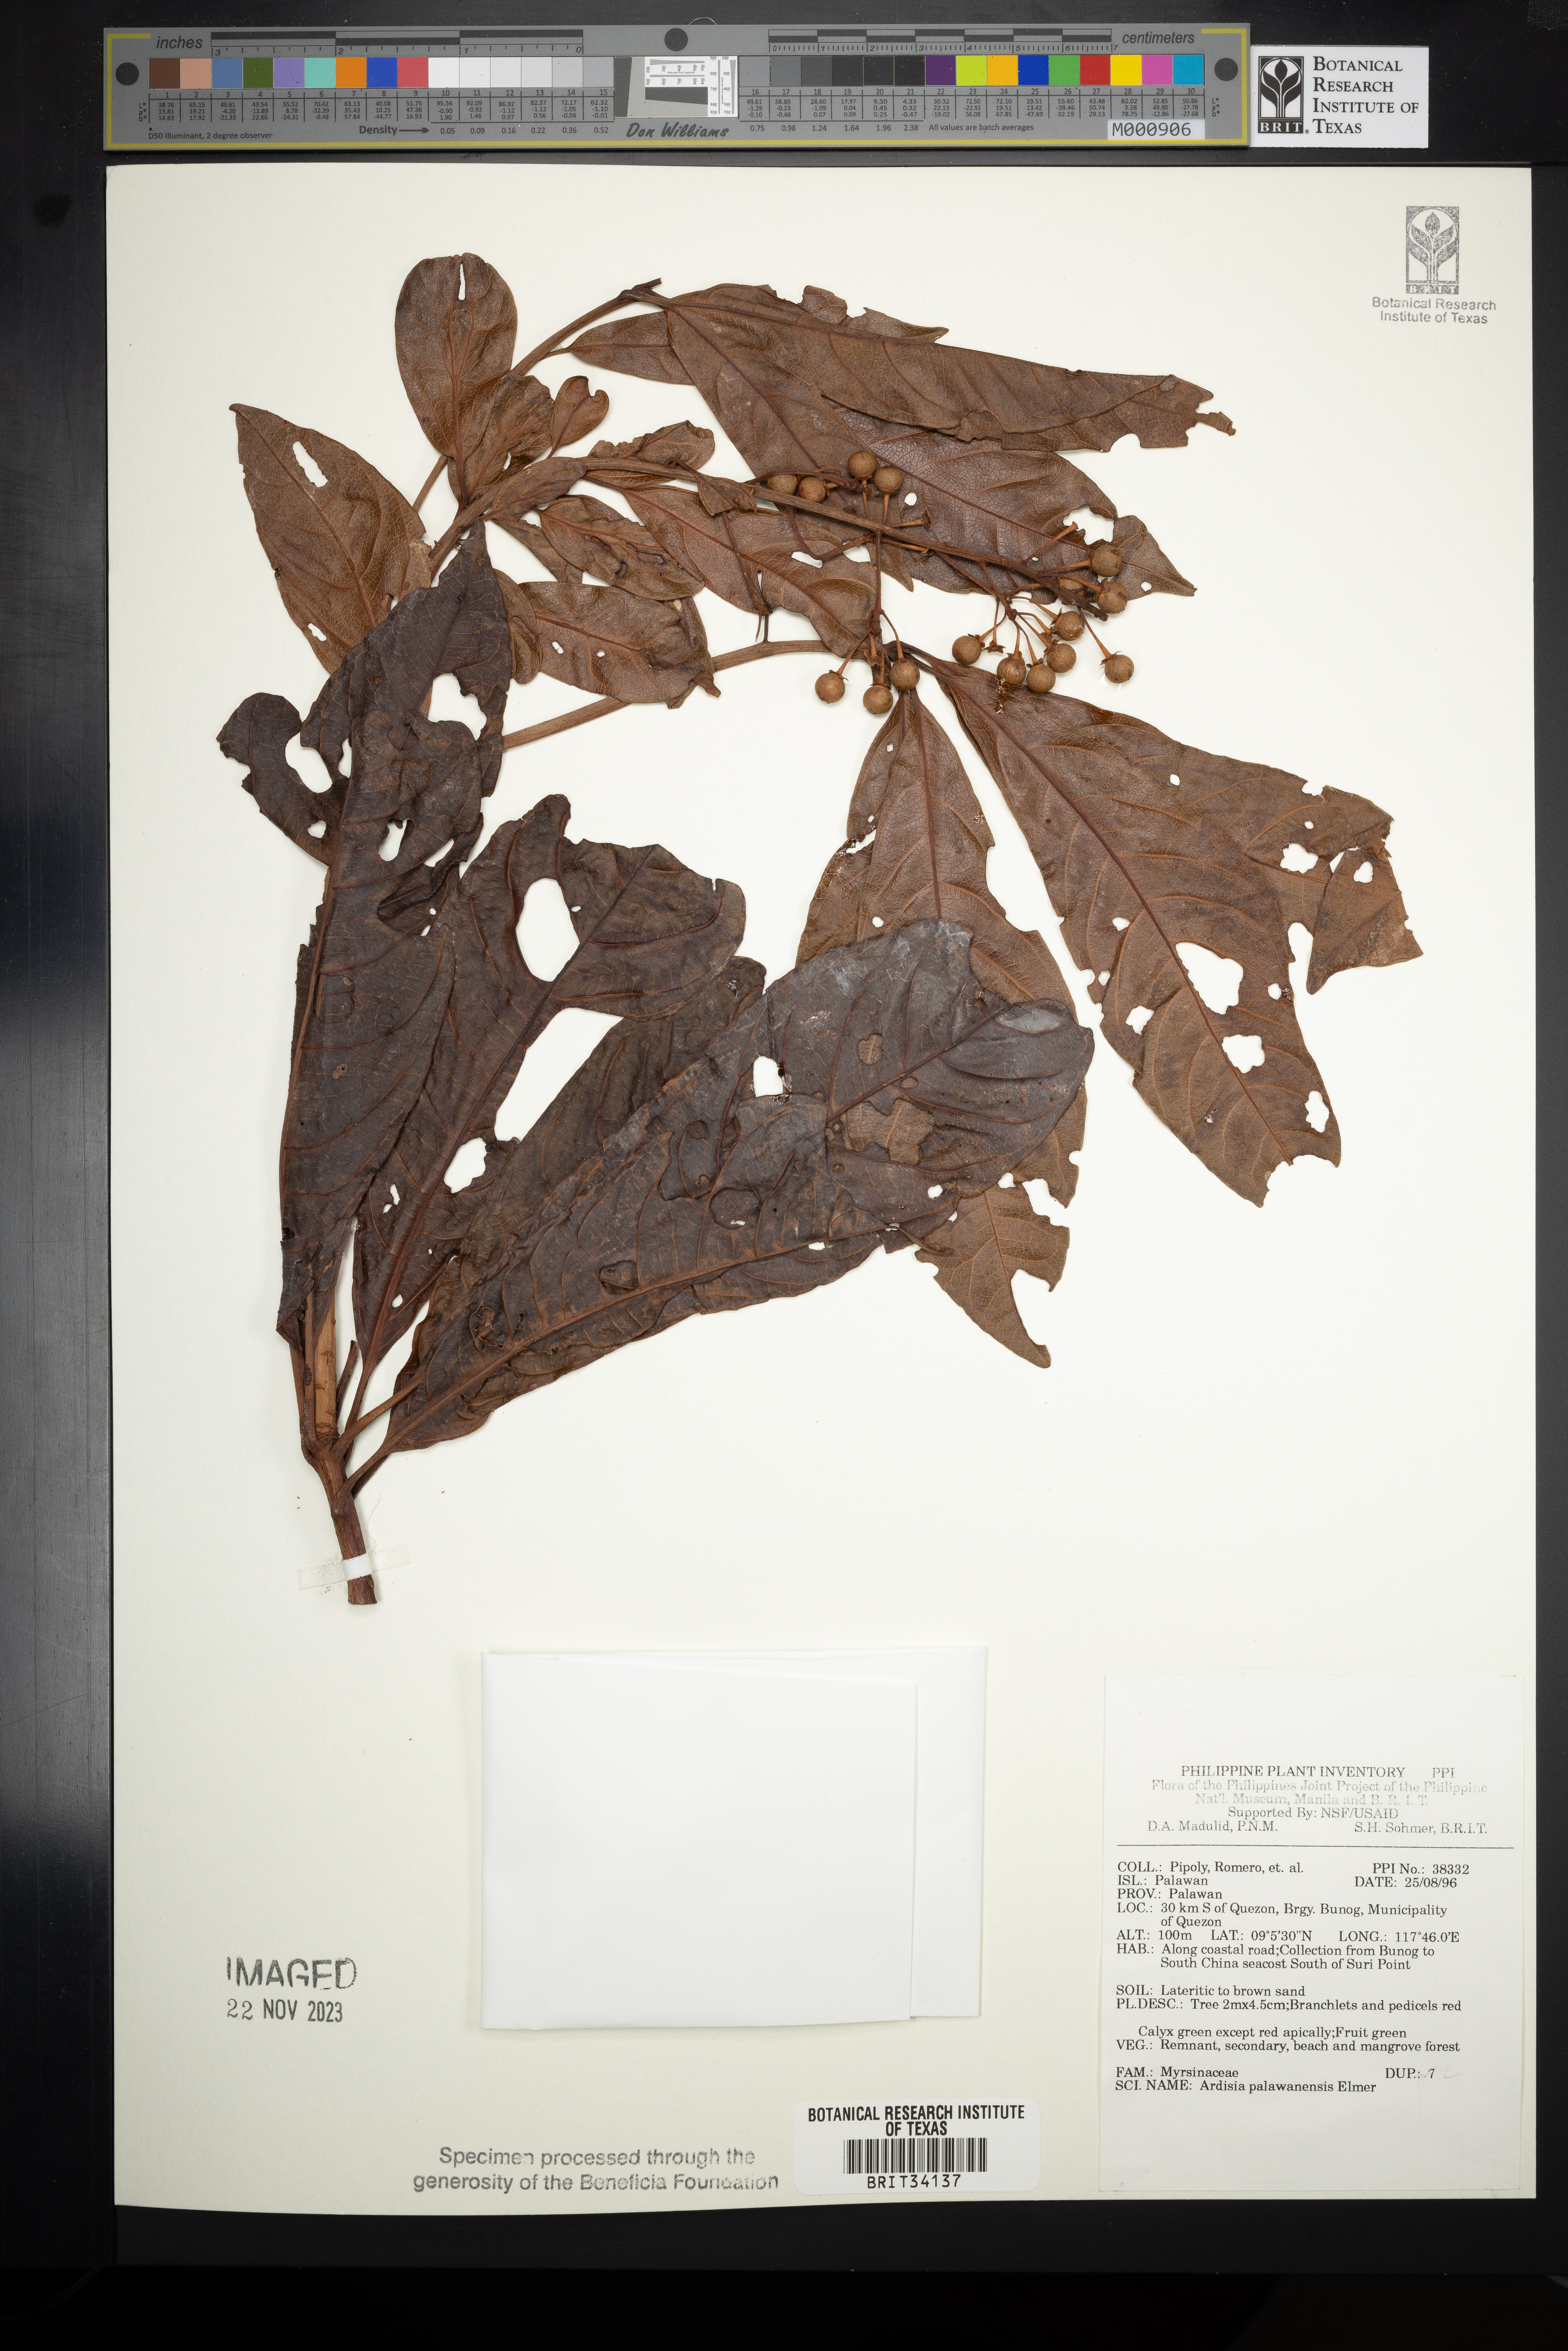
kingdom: Plantae
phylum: Tracheophyta
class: Magnoliopsida
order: Ericales
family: Primulaceae
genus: Ardisia
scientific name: Ardisia palawanensis
